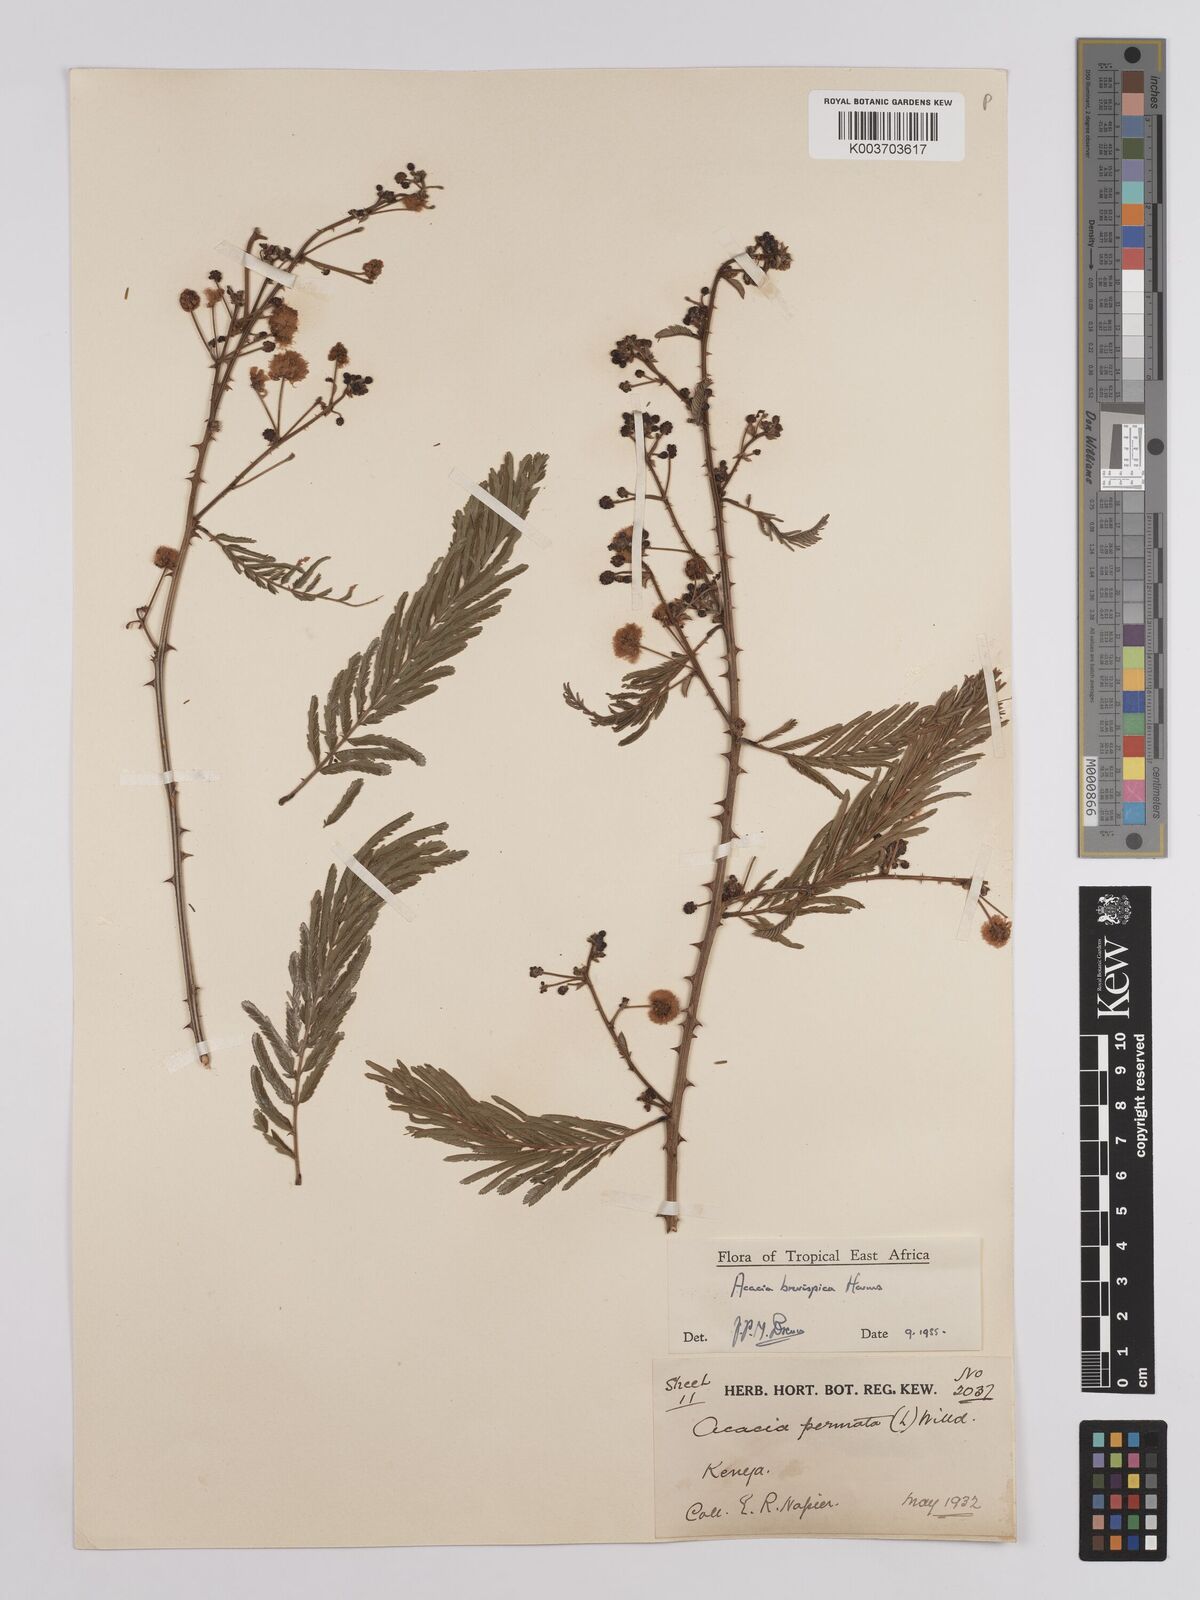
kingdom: Plantae
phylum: Tracheophyta
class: Magnoliopsida
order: Fabales
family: Fabaceae
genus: Senegalia
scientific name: Senegalia brevispica
